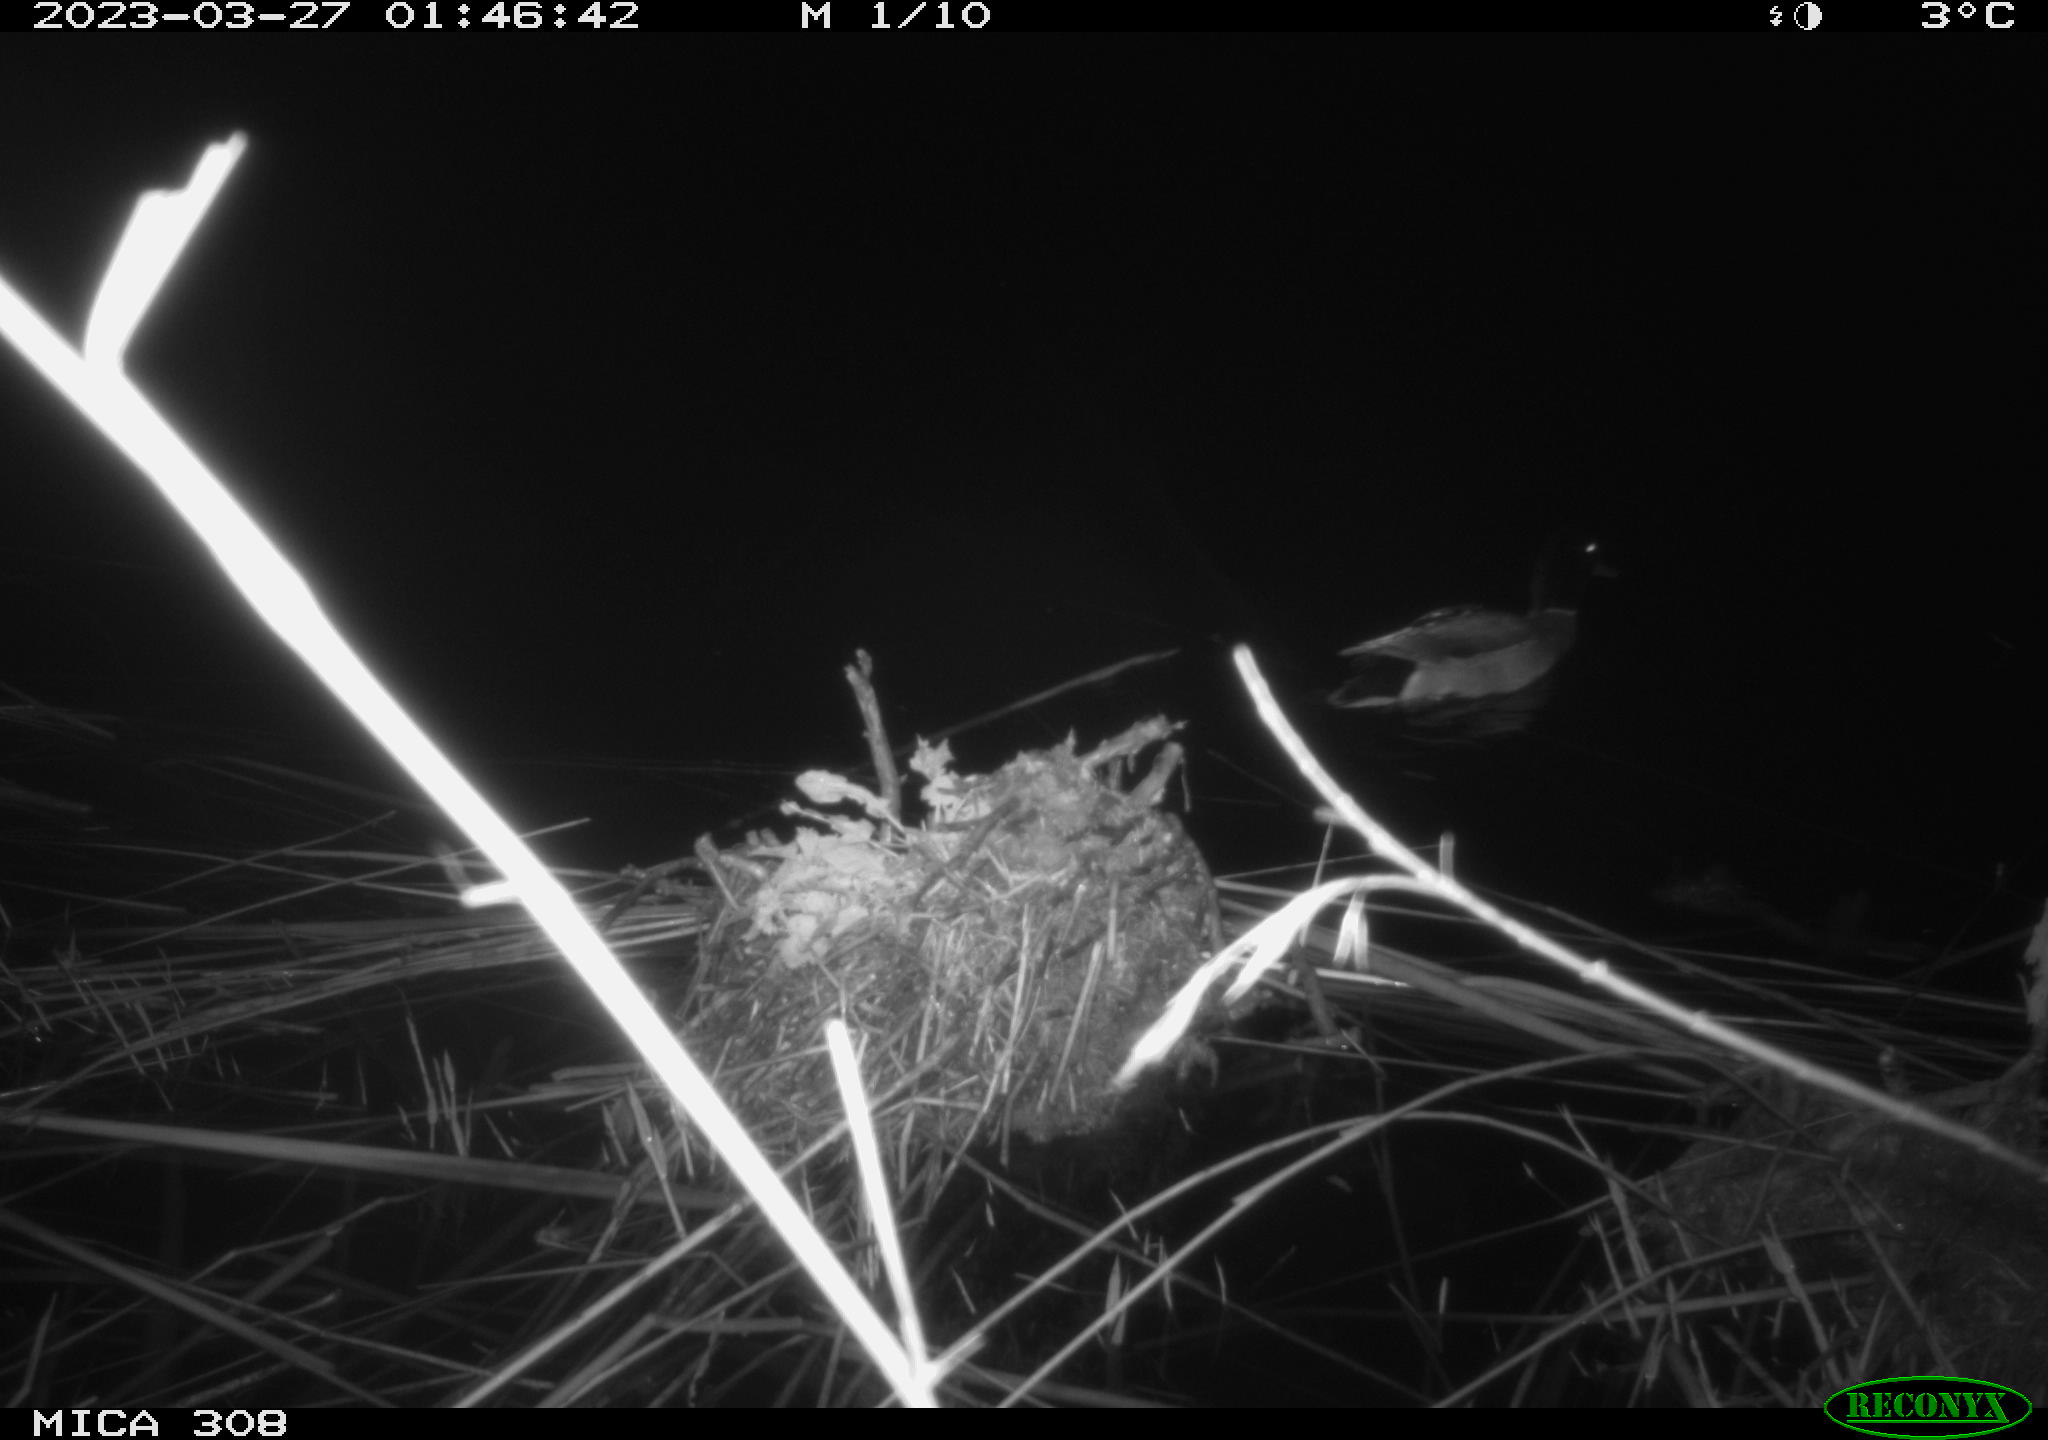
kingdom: Animalia
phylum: Chordata
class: Aves
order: Anseriformes
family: Anatidae
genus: Anas
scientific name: Anas
